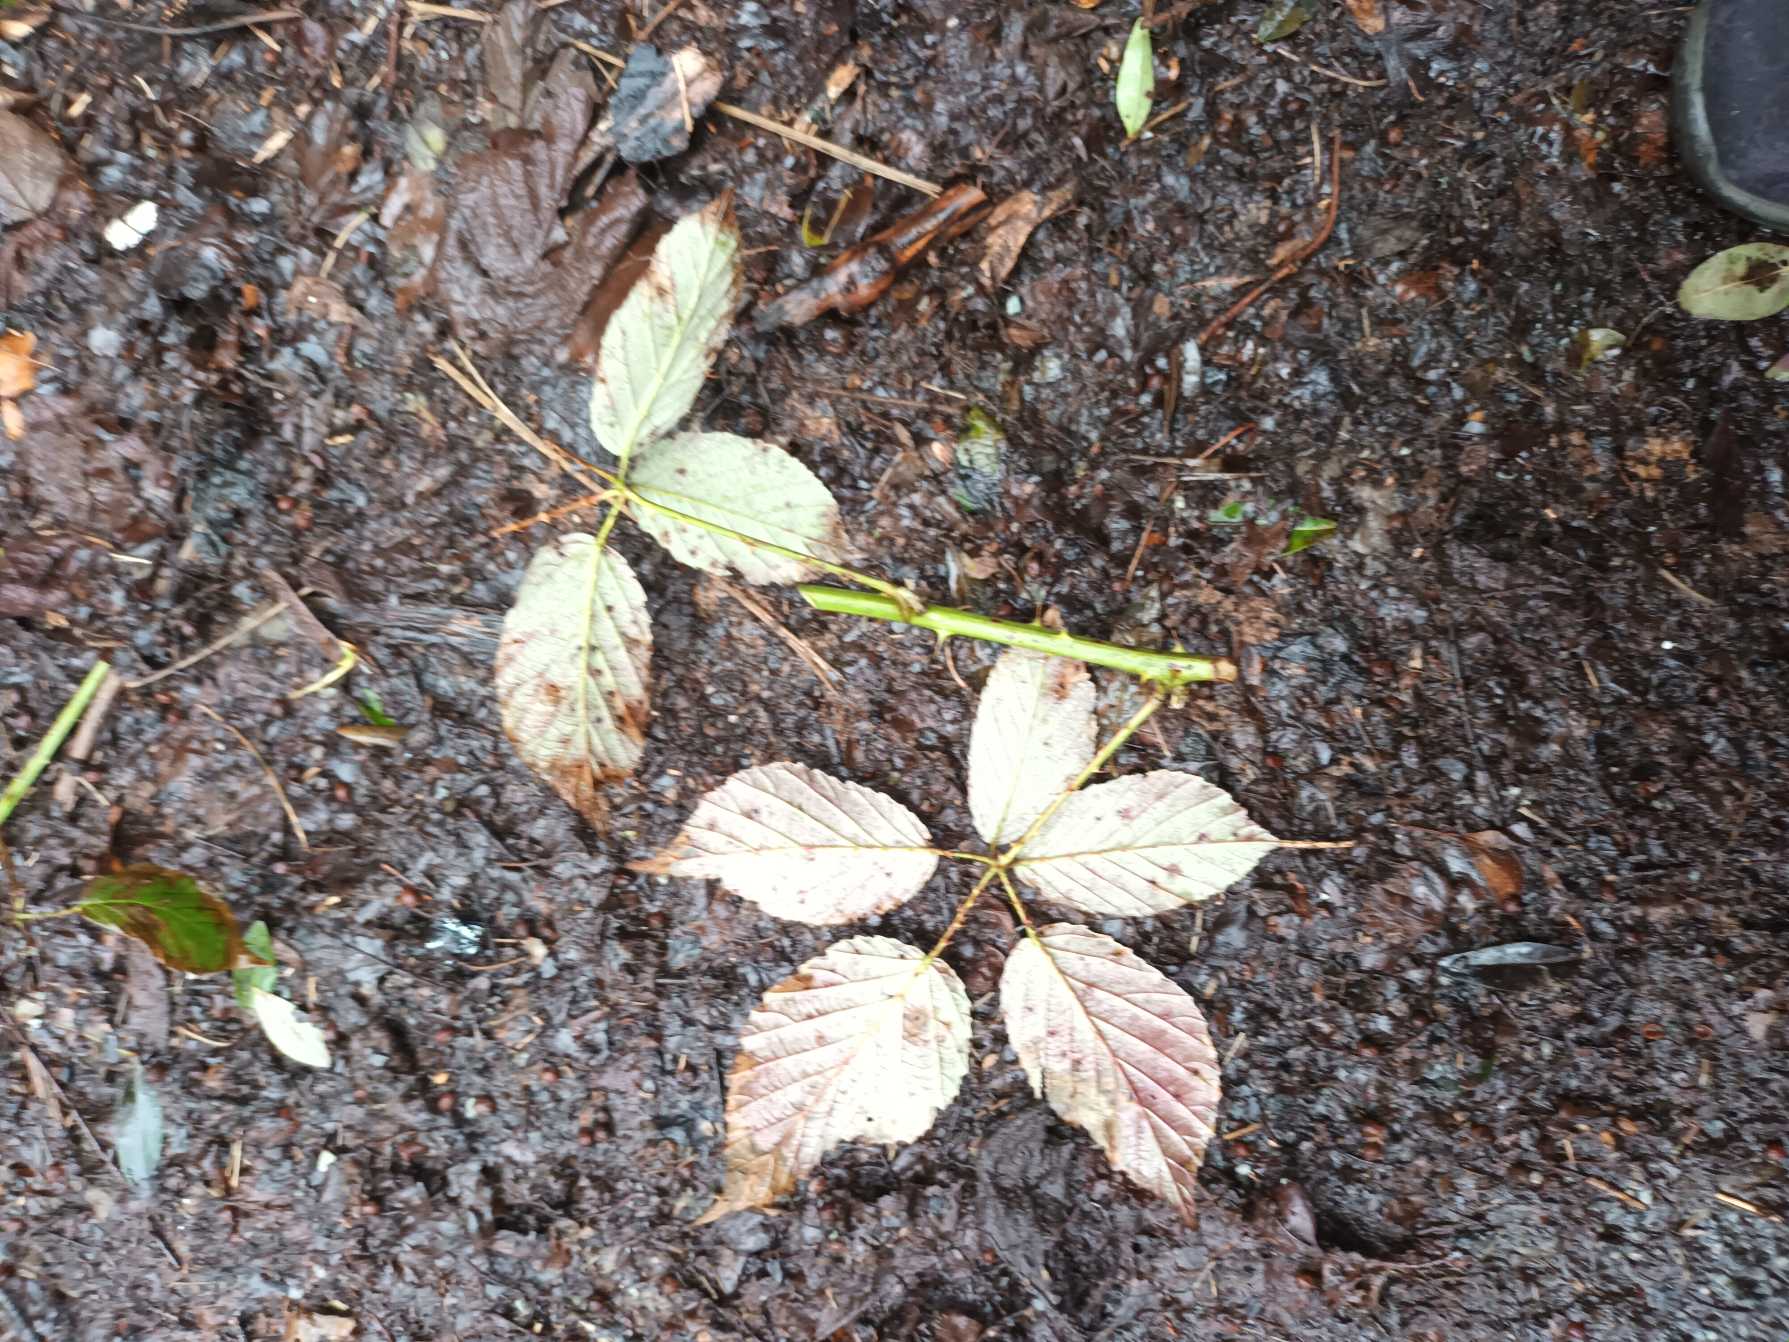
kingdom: Plantae
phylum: Tracheophyta
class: Magnoliopsida
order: Rosales
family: Rosaceae
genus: Rubus
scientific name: Rubus radula
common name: Rasperu brombær
